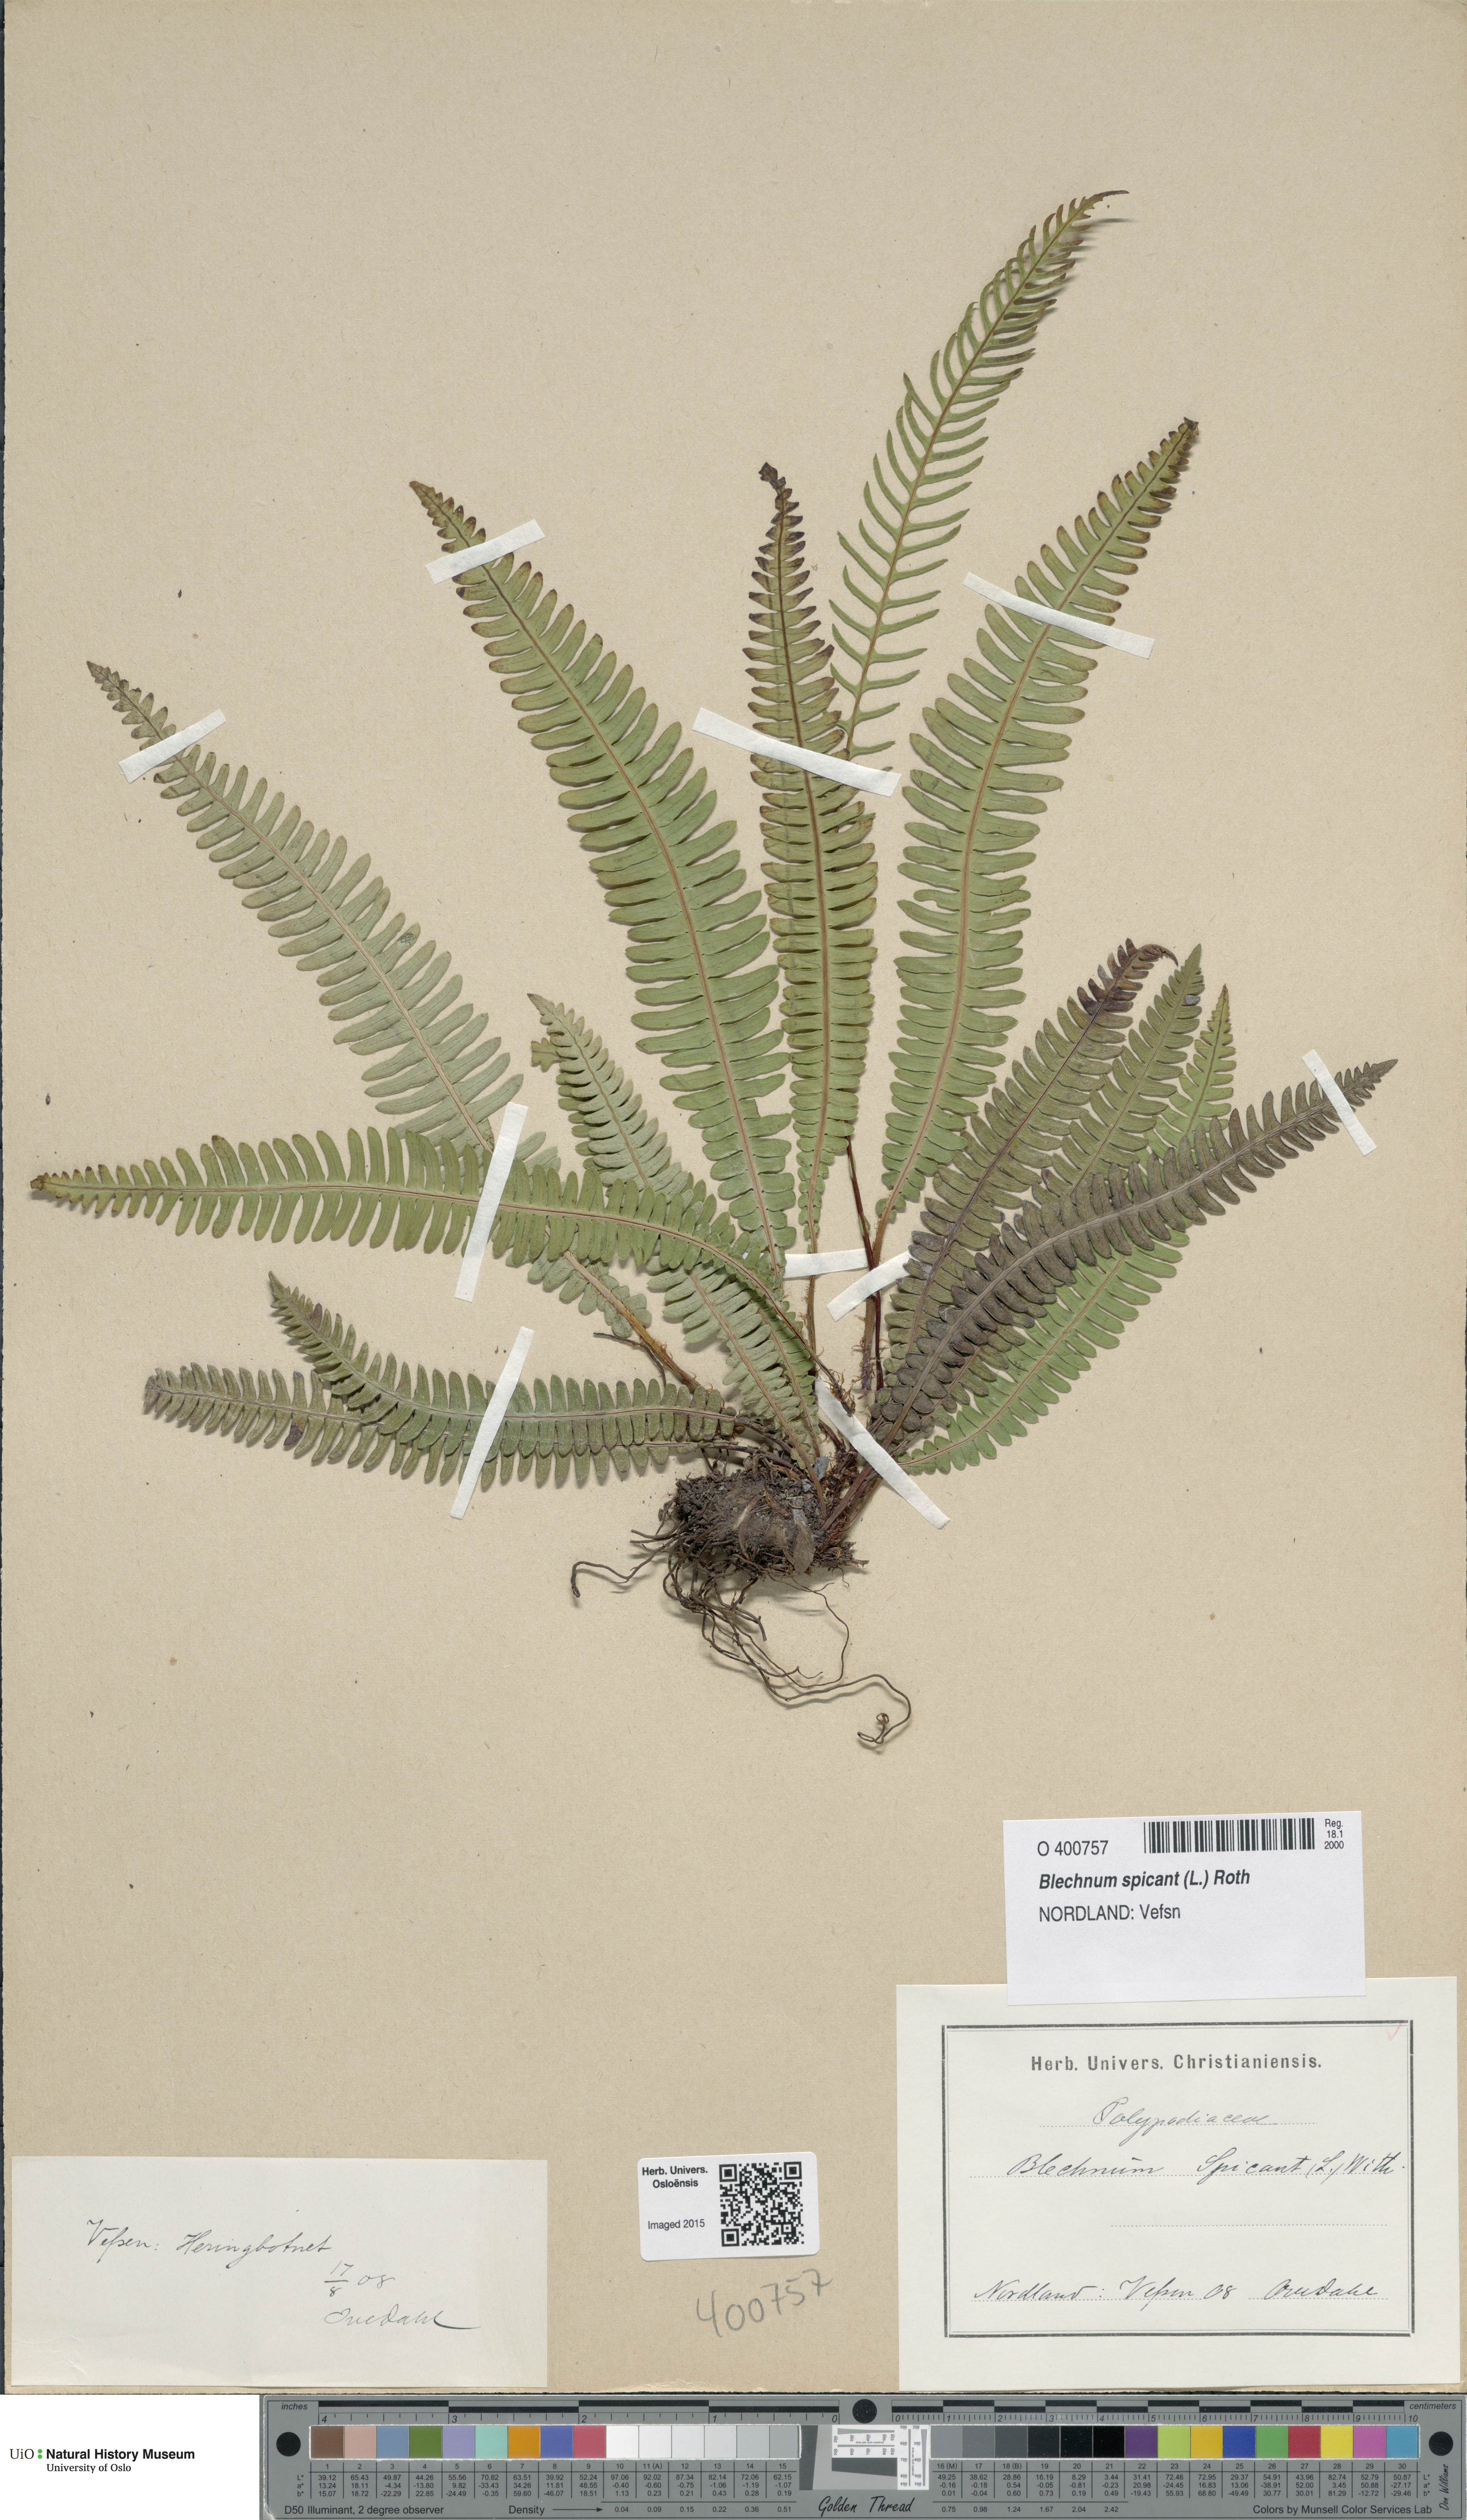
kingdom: Plantae
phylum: Tracheophyta
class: Polypodiopsida
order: Polypodiales
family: Blechnaceae
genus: Struthiopteris
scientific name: Struthiopteris spicant
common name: Deer fern
